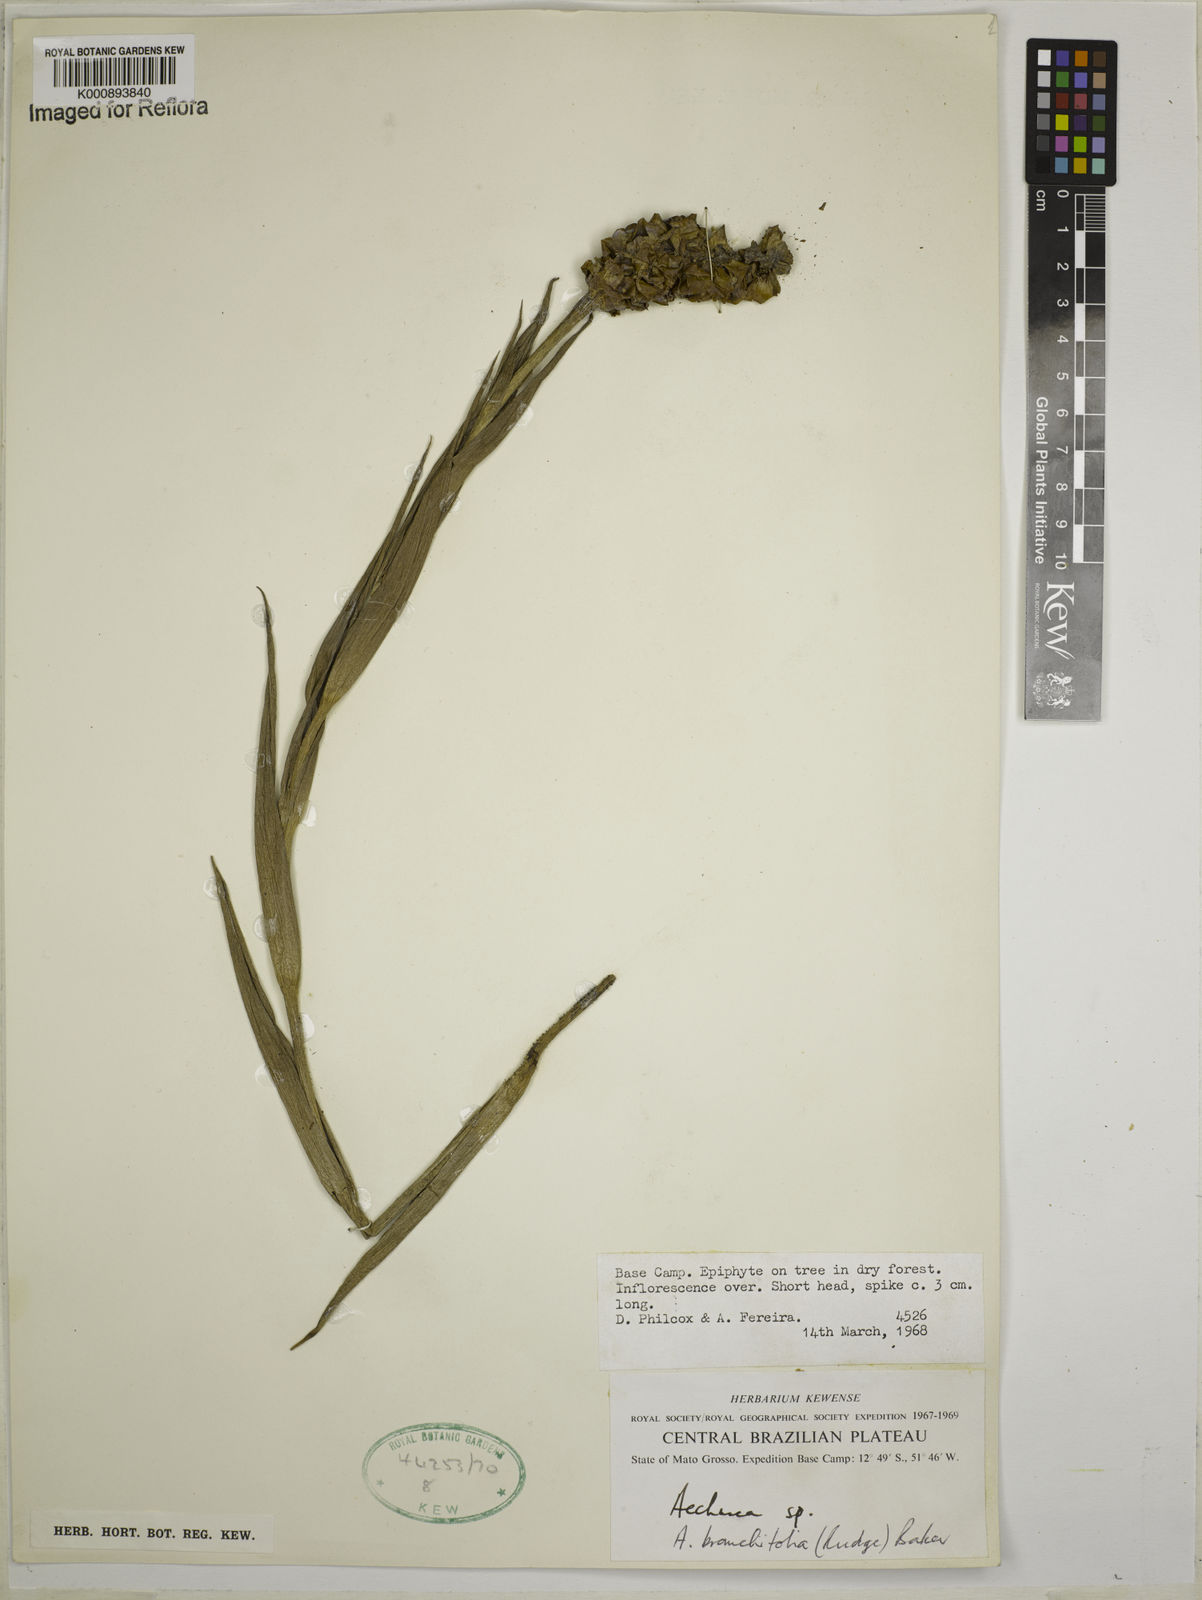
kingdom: Plantae
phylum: Tracheophyta
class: Liliopsida
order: Poales
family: Bromeliaceae
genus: Aechmea
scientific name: Aechmea
